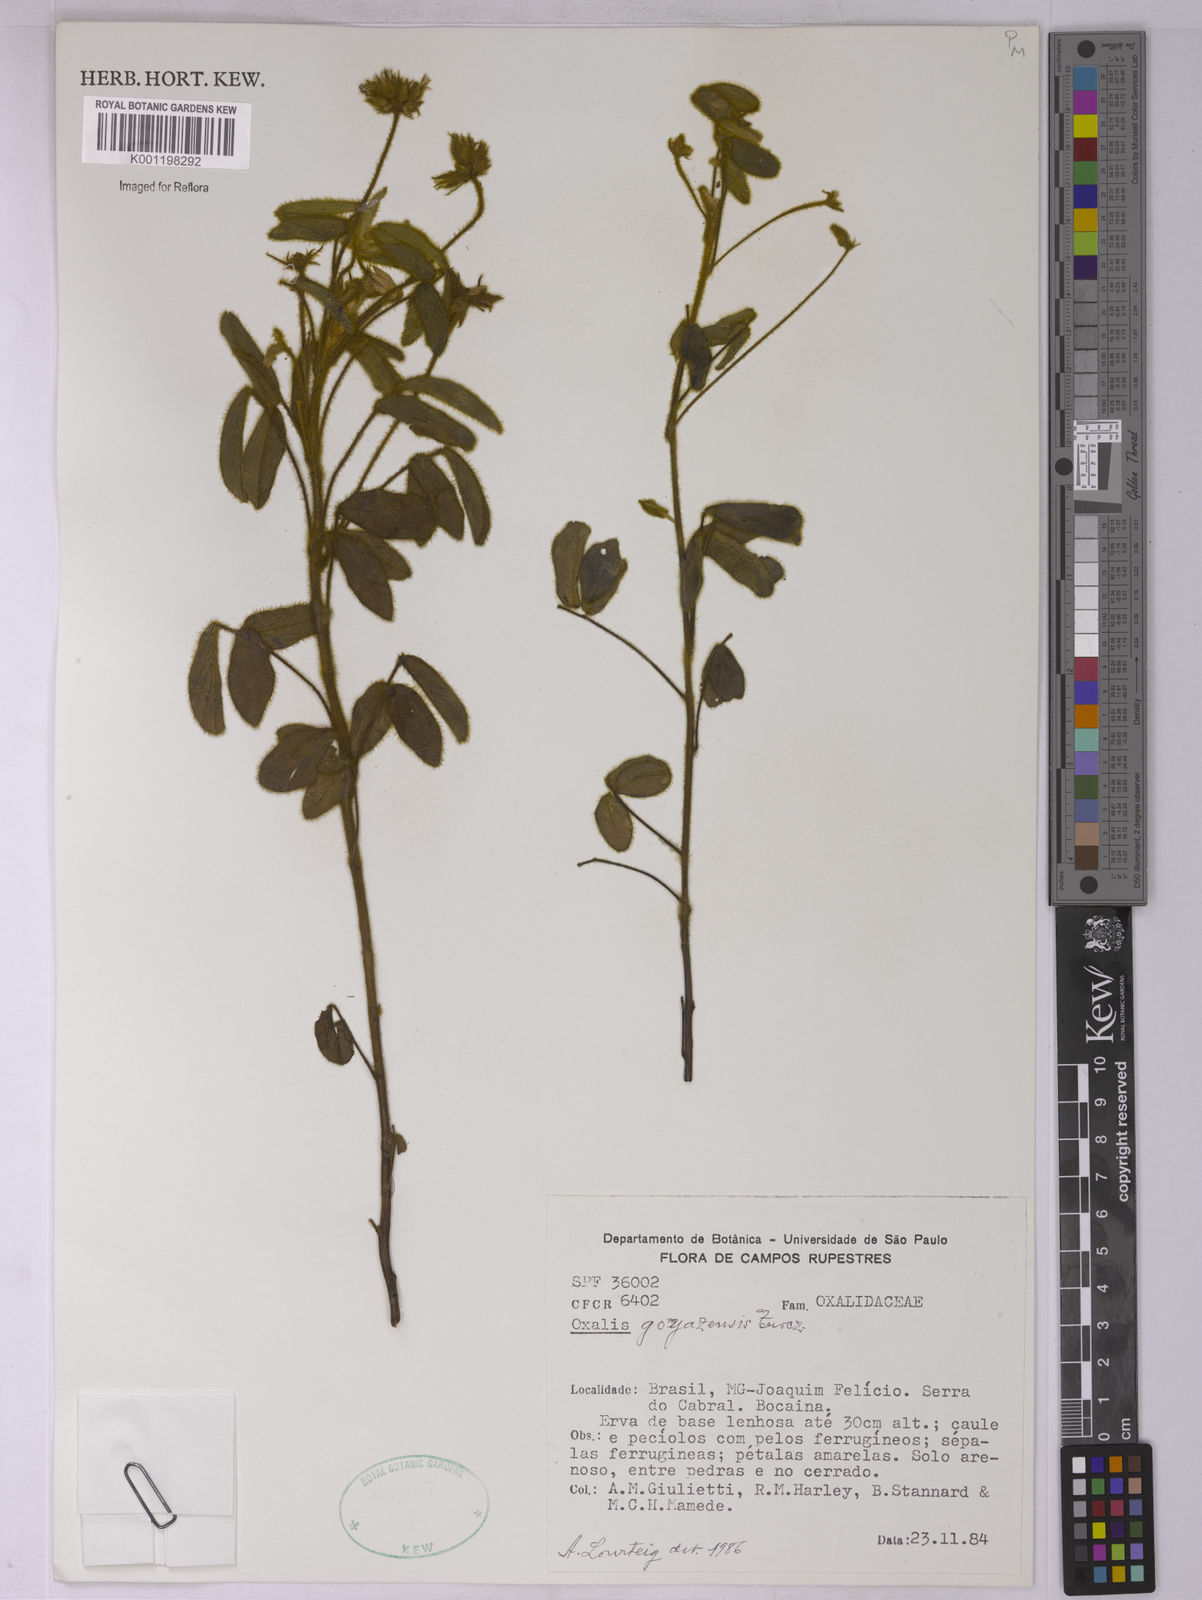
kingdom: Plantae
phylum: Tracheophyta
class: Magnoliopsida
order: Oxalidales
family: Oxalidaceae
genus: Oxalis
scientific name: Oxalis goyazensis
